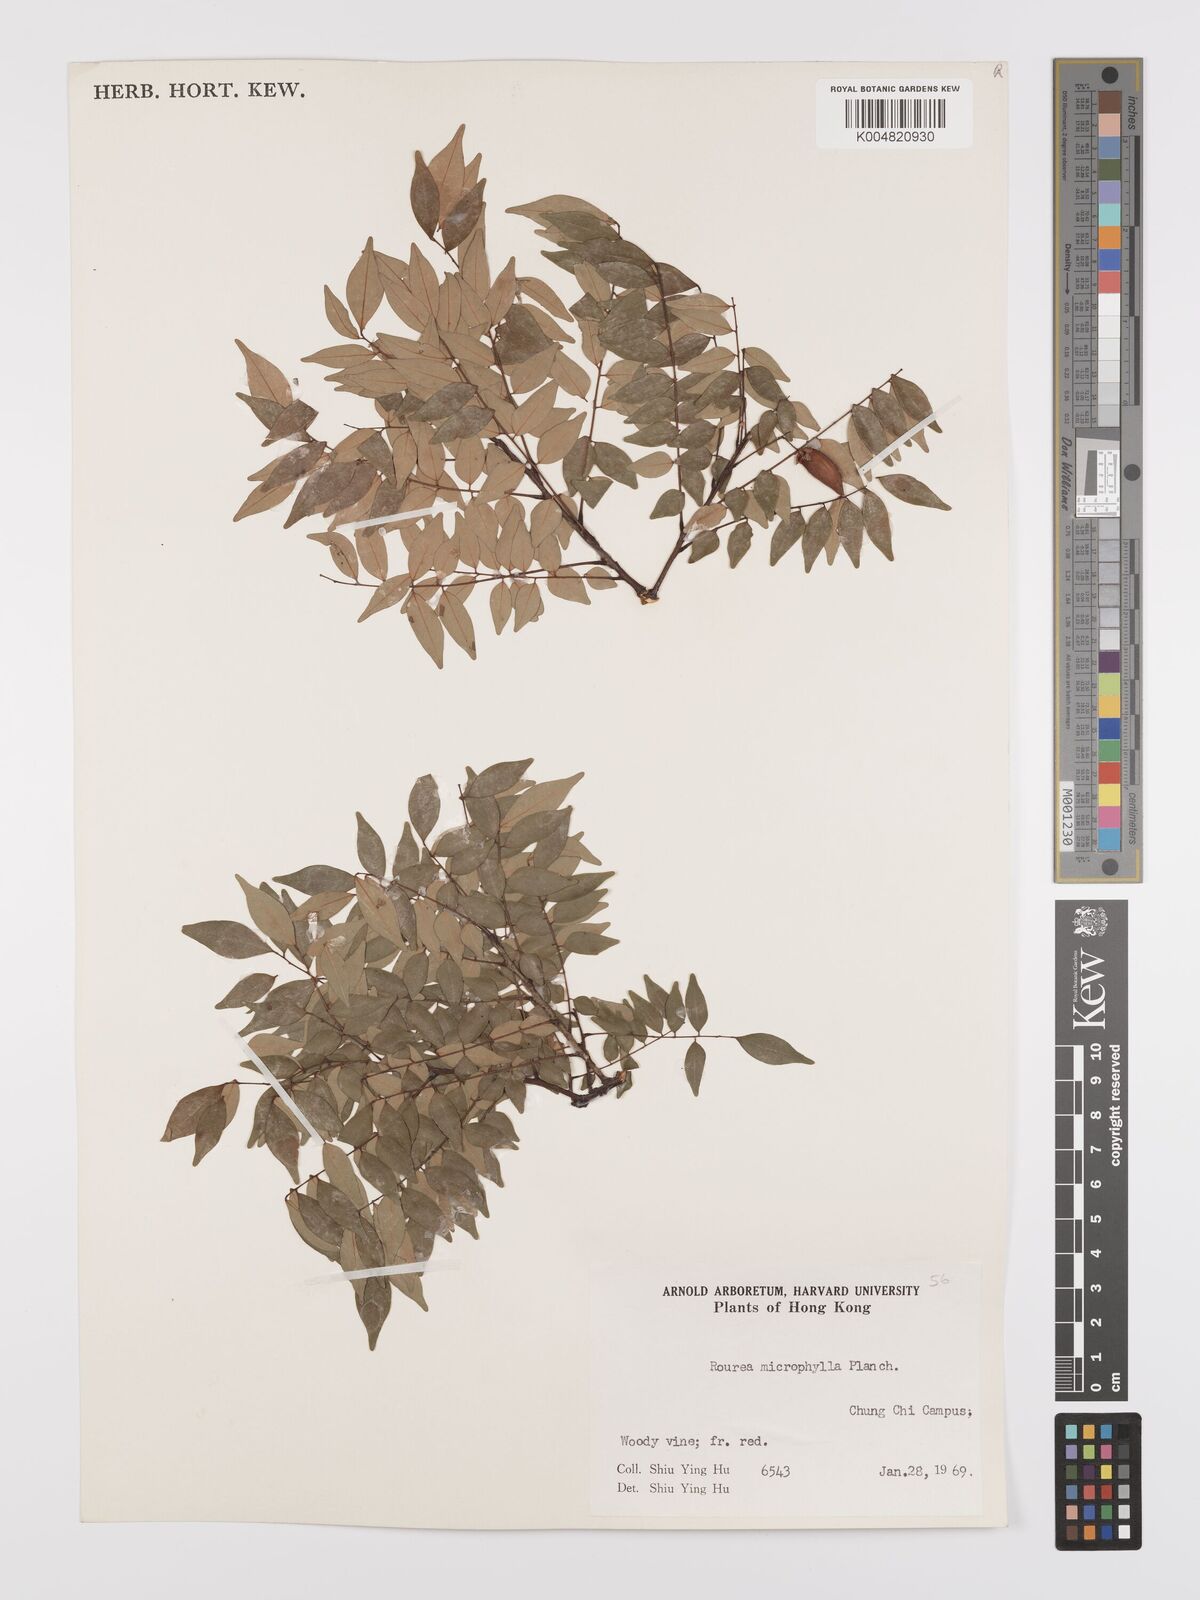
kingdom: Plantae
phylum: Tracheophyta
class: Magnoliopsida
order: Oxalidales
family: Connaraceae
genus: Rourea
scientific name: Rourea microphylla
